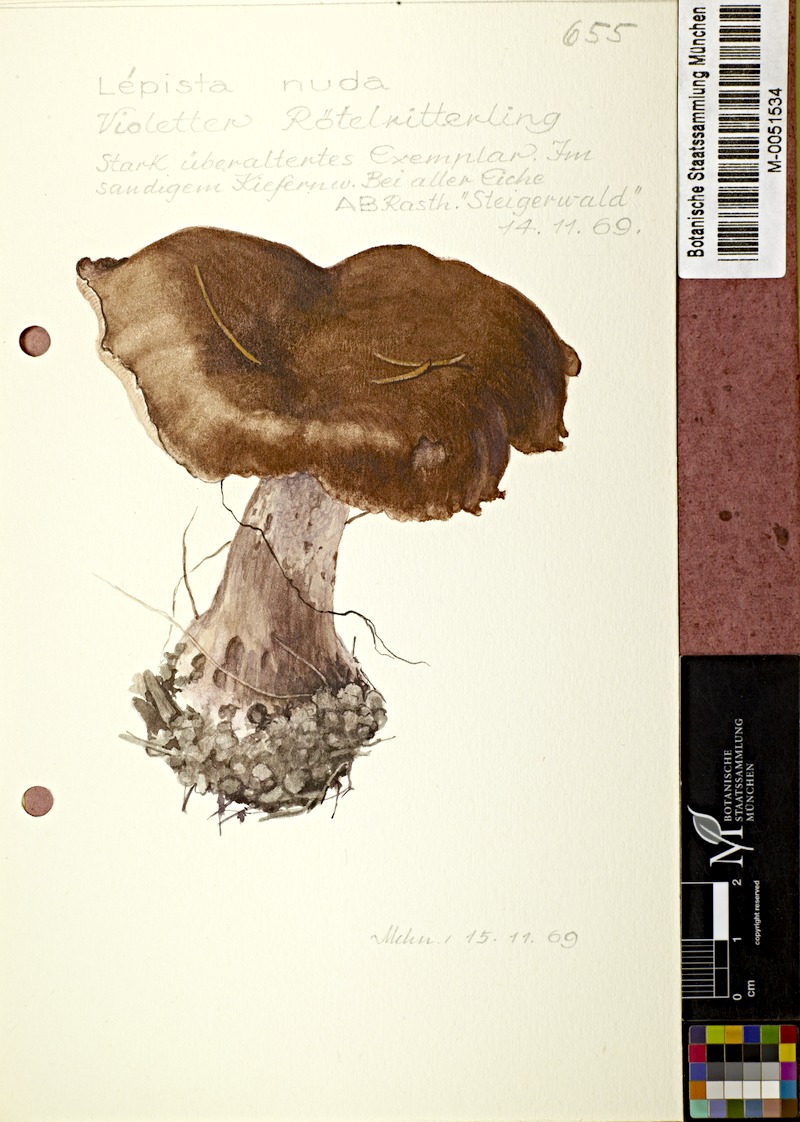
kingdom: Fungi
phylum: Basidiomycota
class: Agaricomycetes
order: Agaricales
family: Tricholomataceae
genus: Lepista
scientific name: Lepista nuda
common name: Wood blewit
